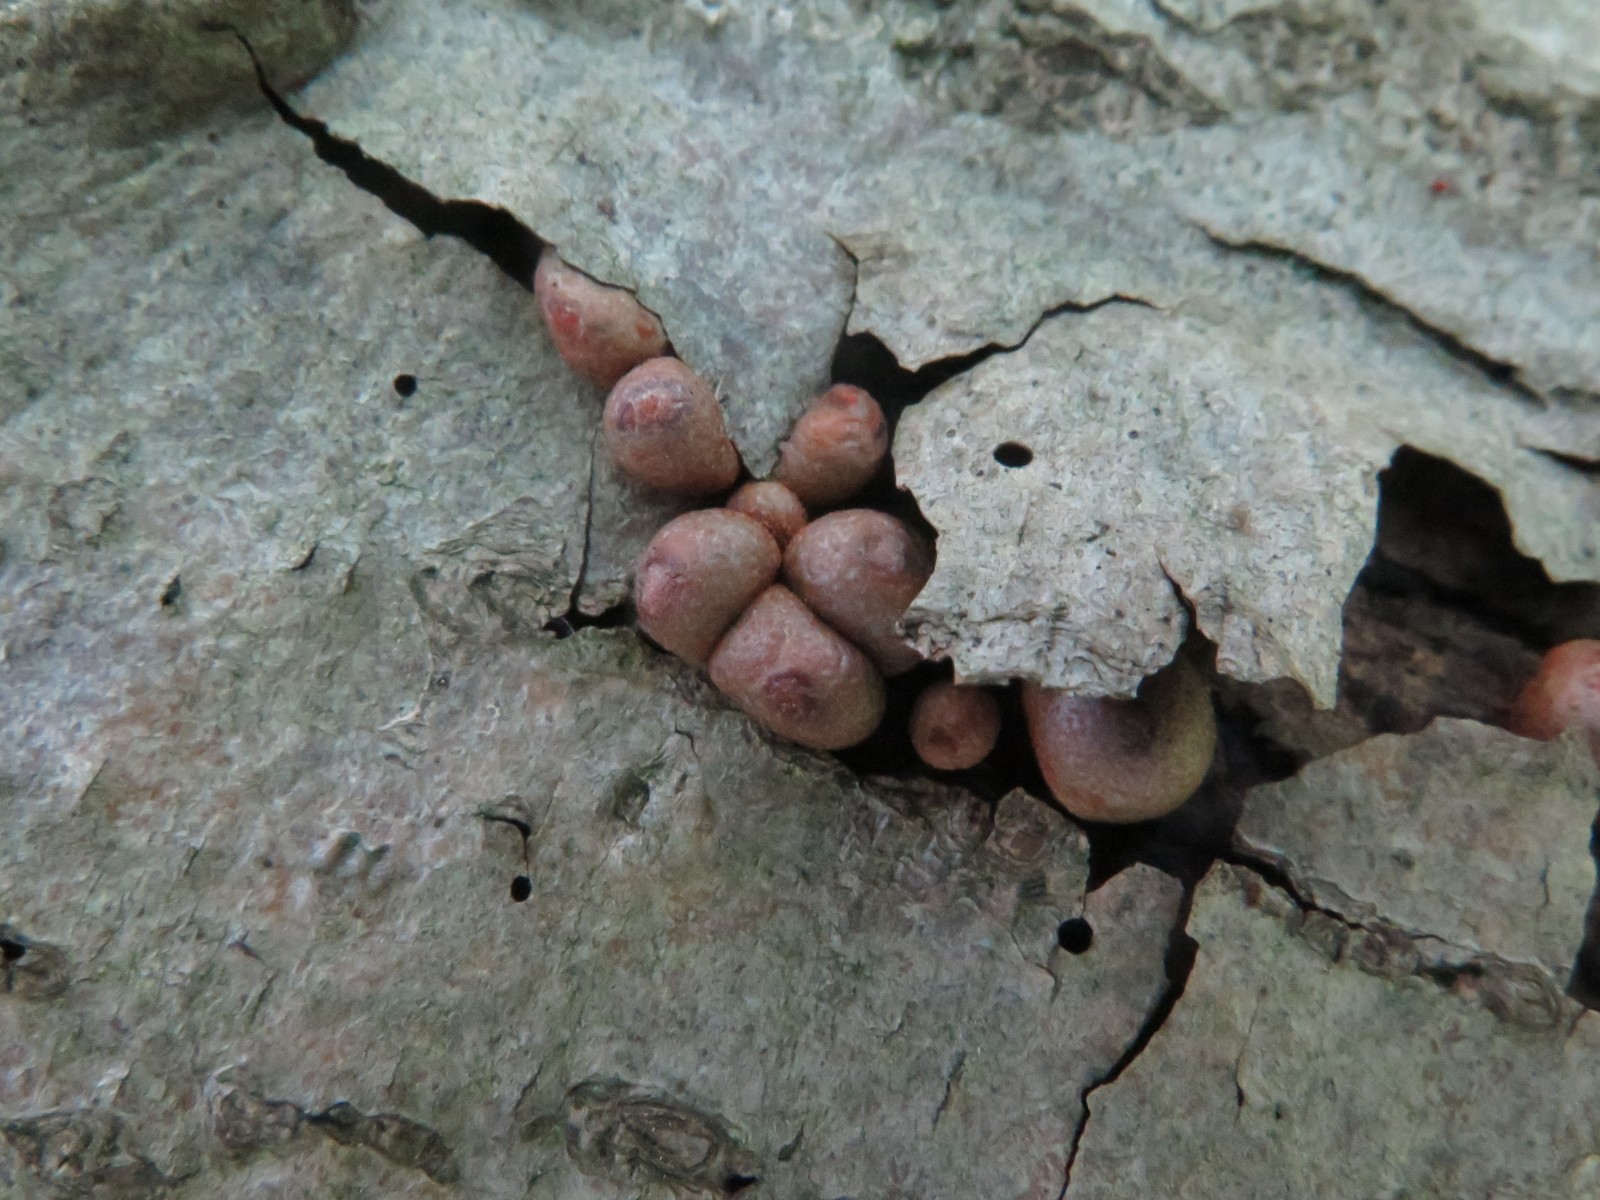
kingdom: Protozoa
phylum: Mycetozoa
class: Myxomycetes
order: Cribrariales
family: Tubiferaceae
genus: Lycogala
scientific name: Lycogala epidendrum
